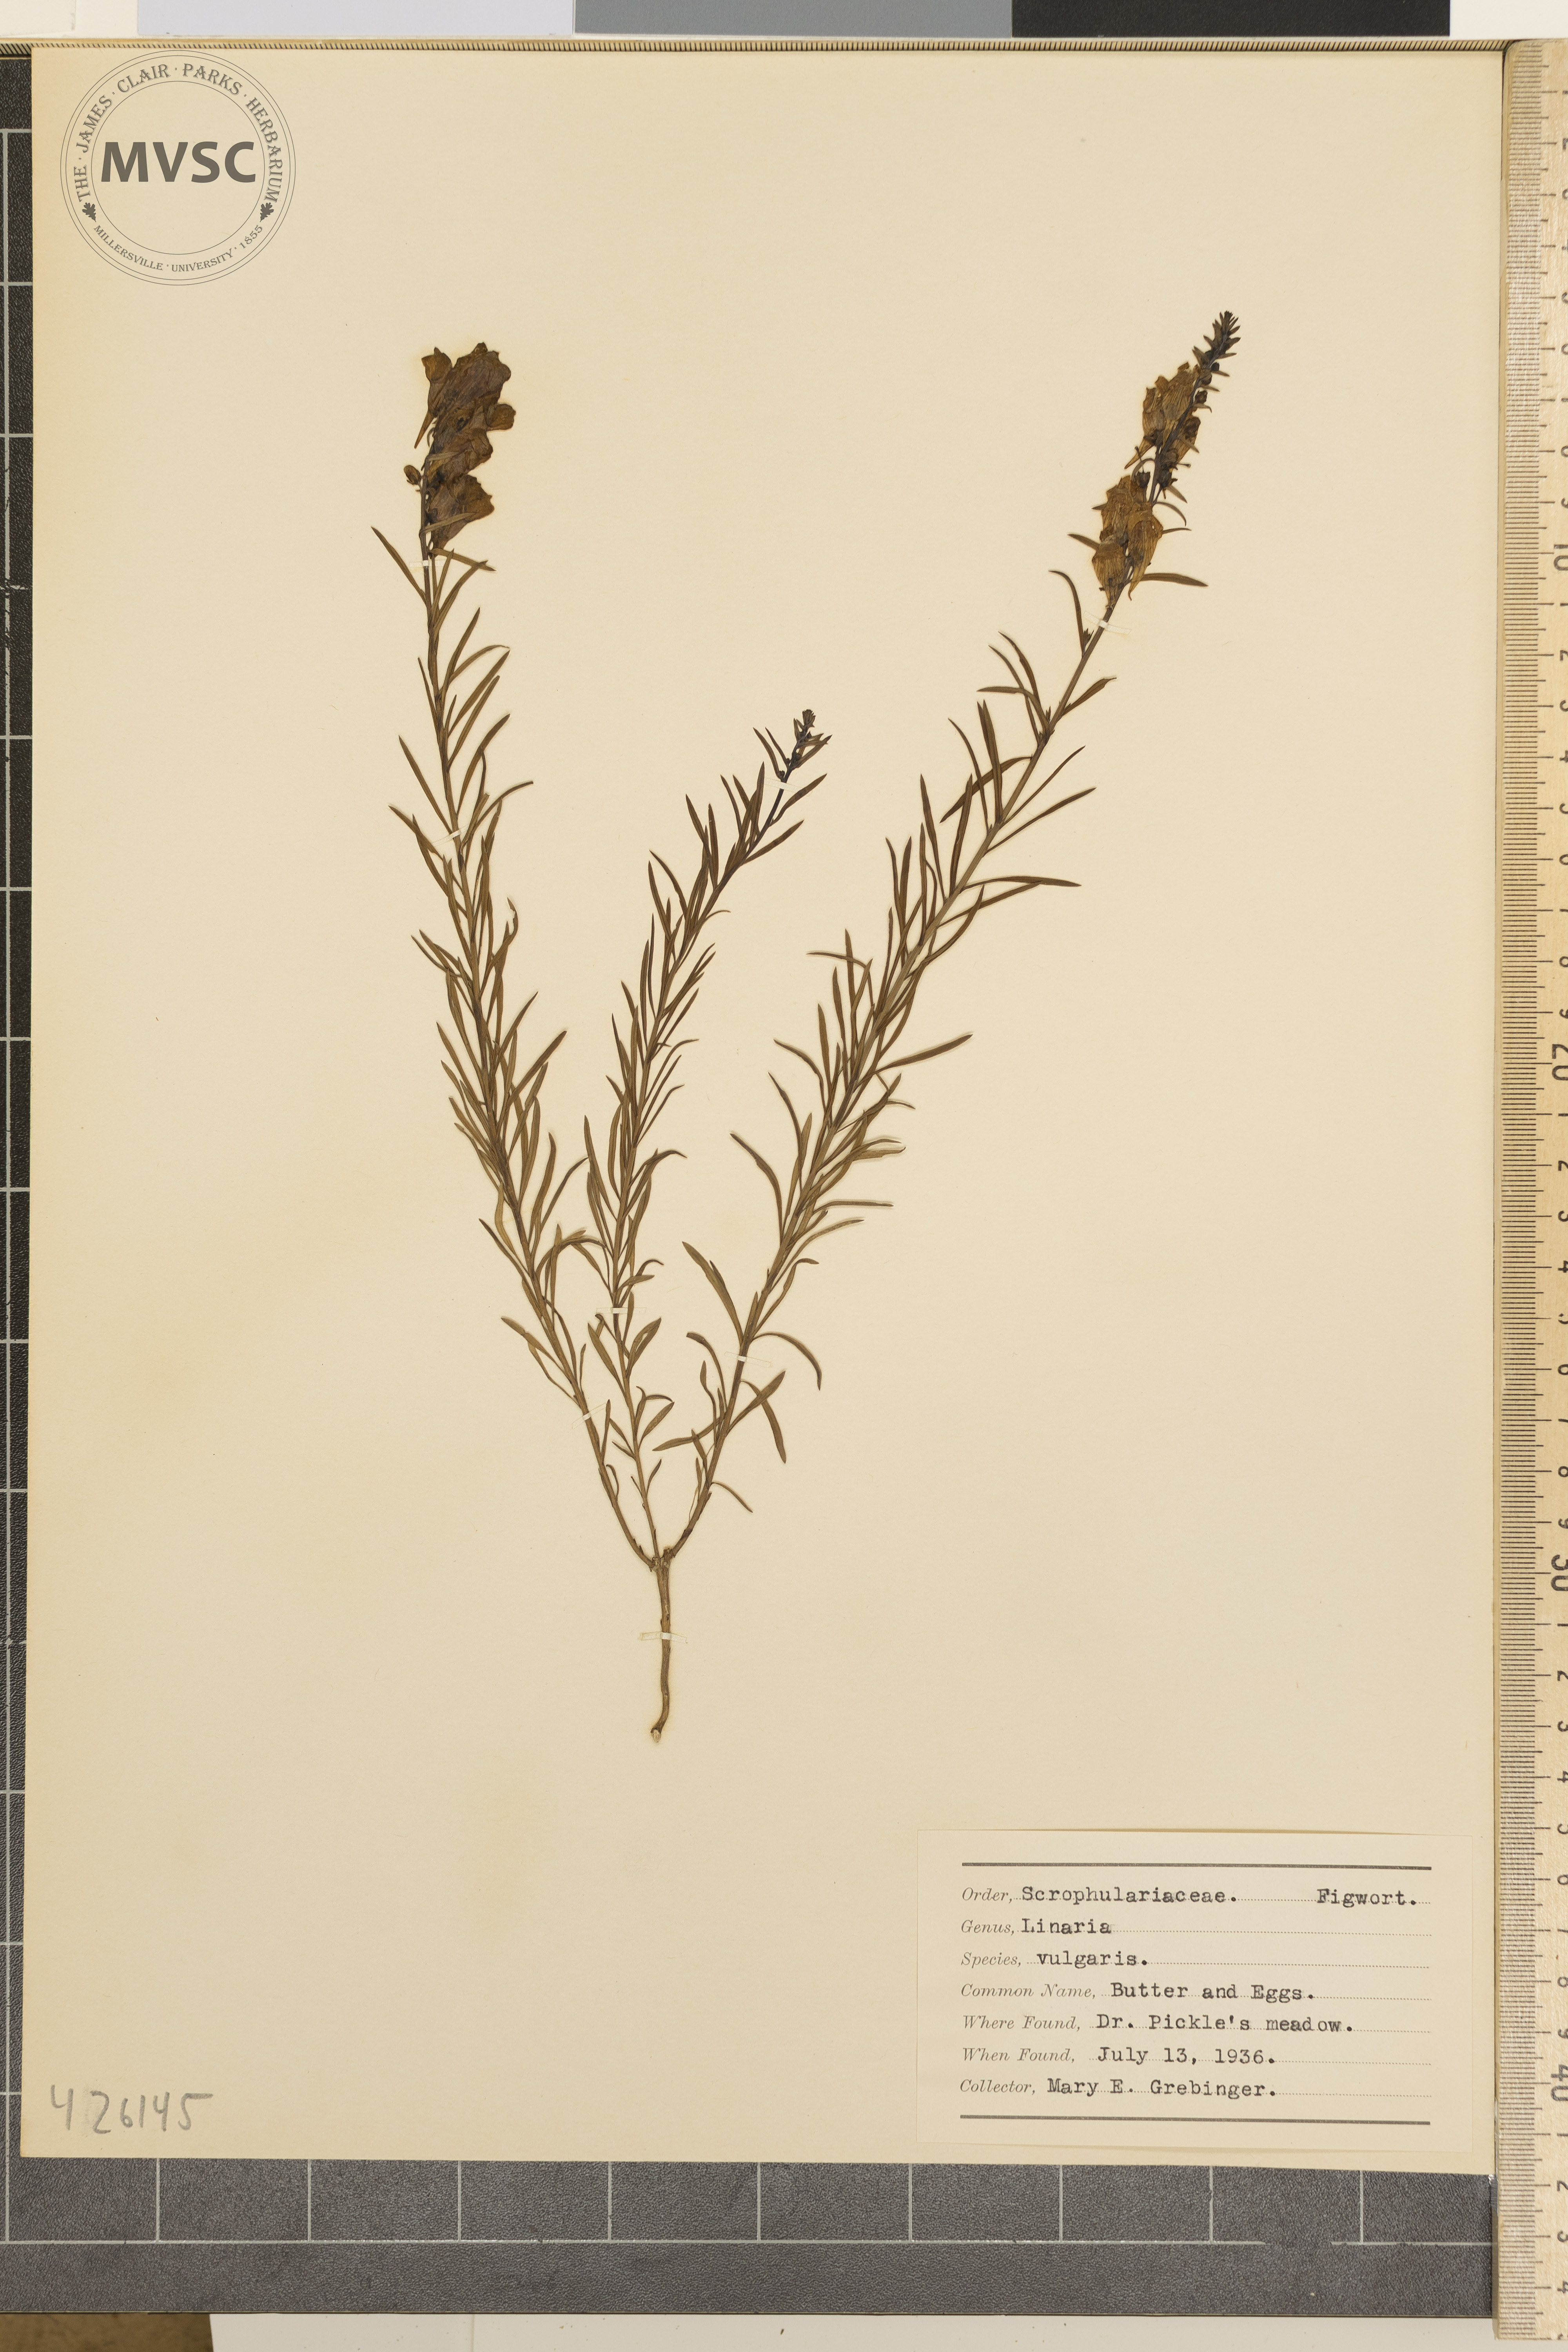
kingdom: Plantae
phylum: Tracheophyta
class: Magnoliopsida
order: Lamiales
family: Plantaginaceae
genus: Linaria
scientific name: Linaria vulgaris
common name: Butter and Eggs
